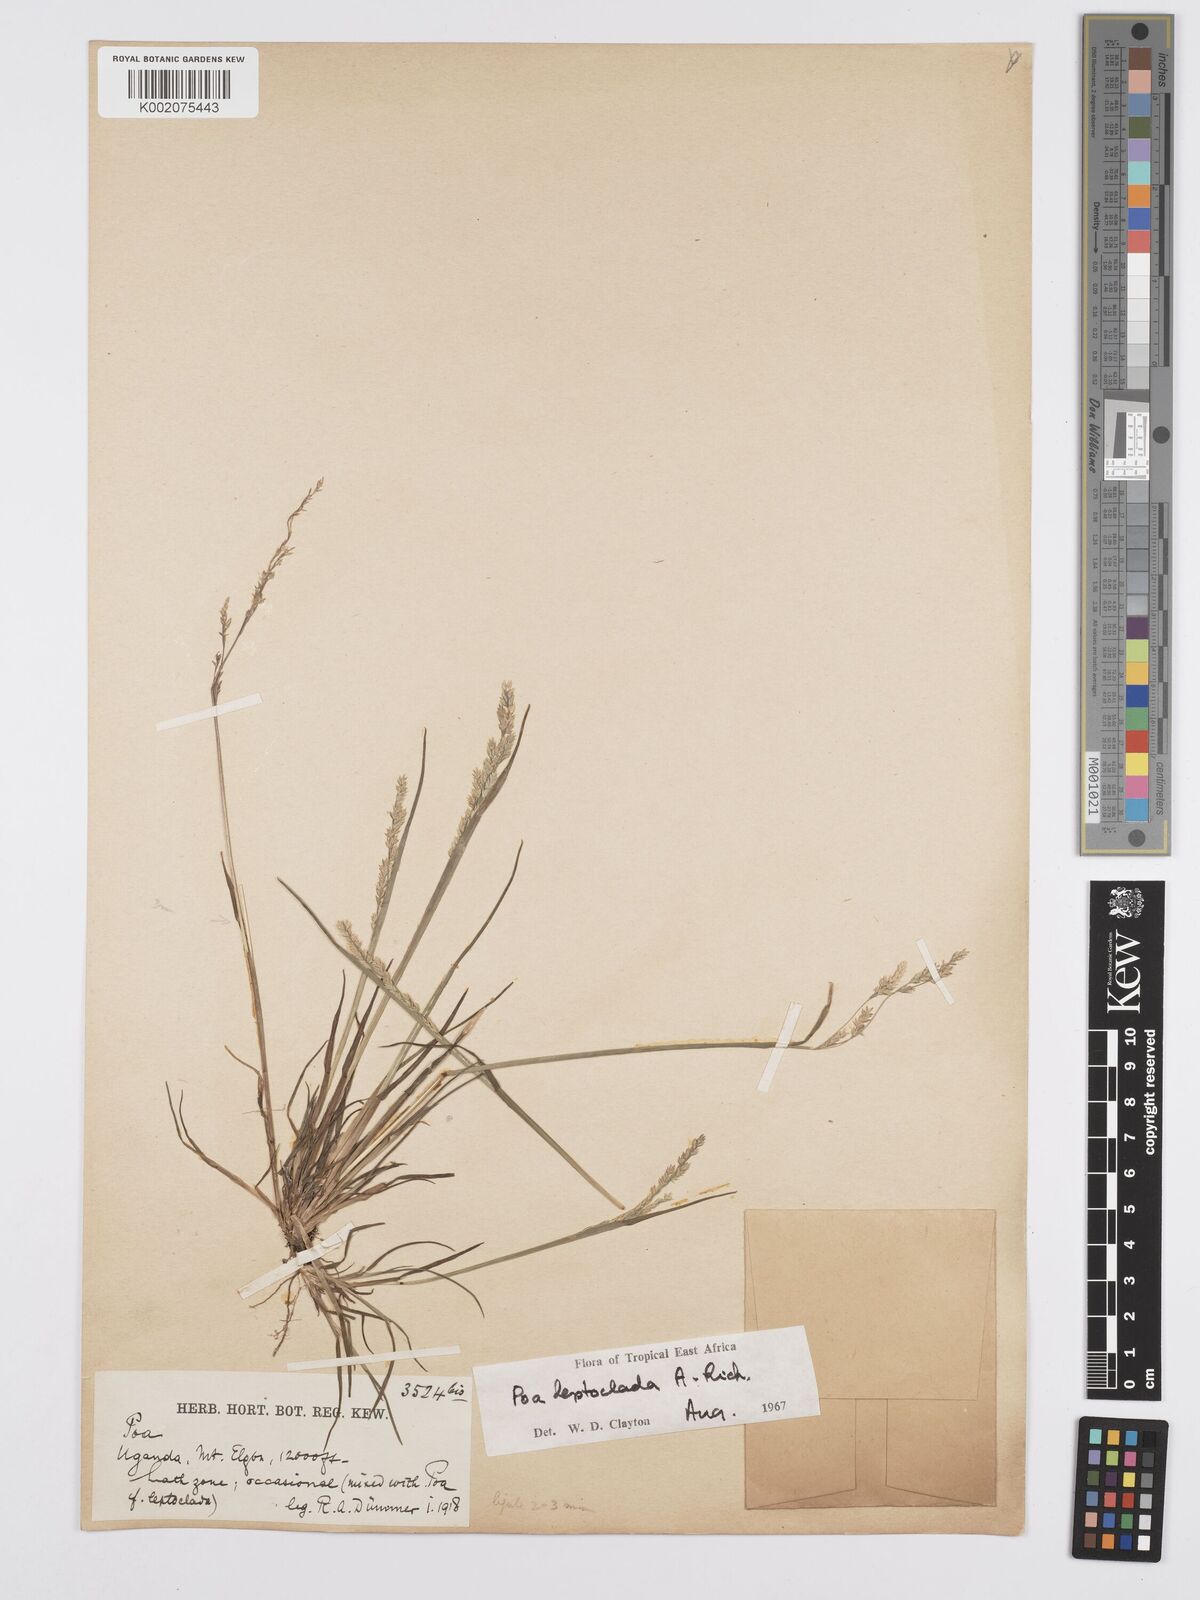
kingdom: Plantae
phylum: Tracheophyta
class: Liliopsida
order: Poales
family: Poaceae
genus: Poa
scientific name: Poa
